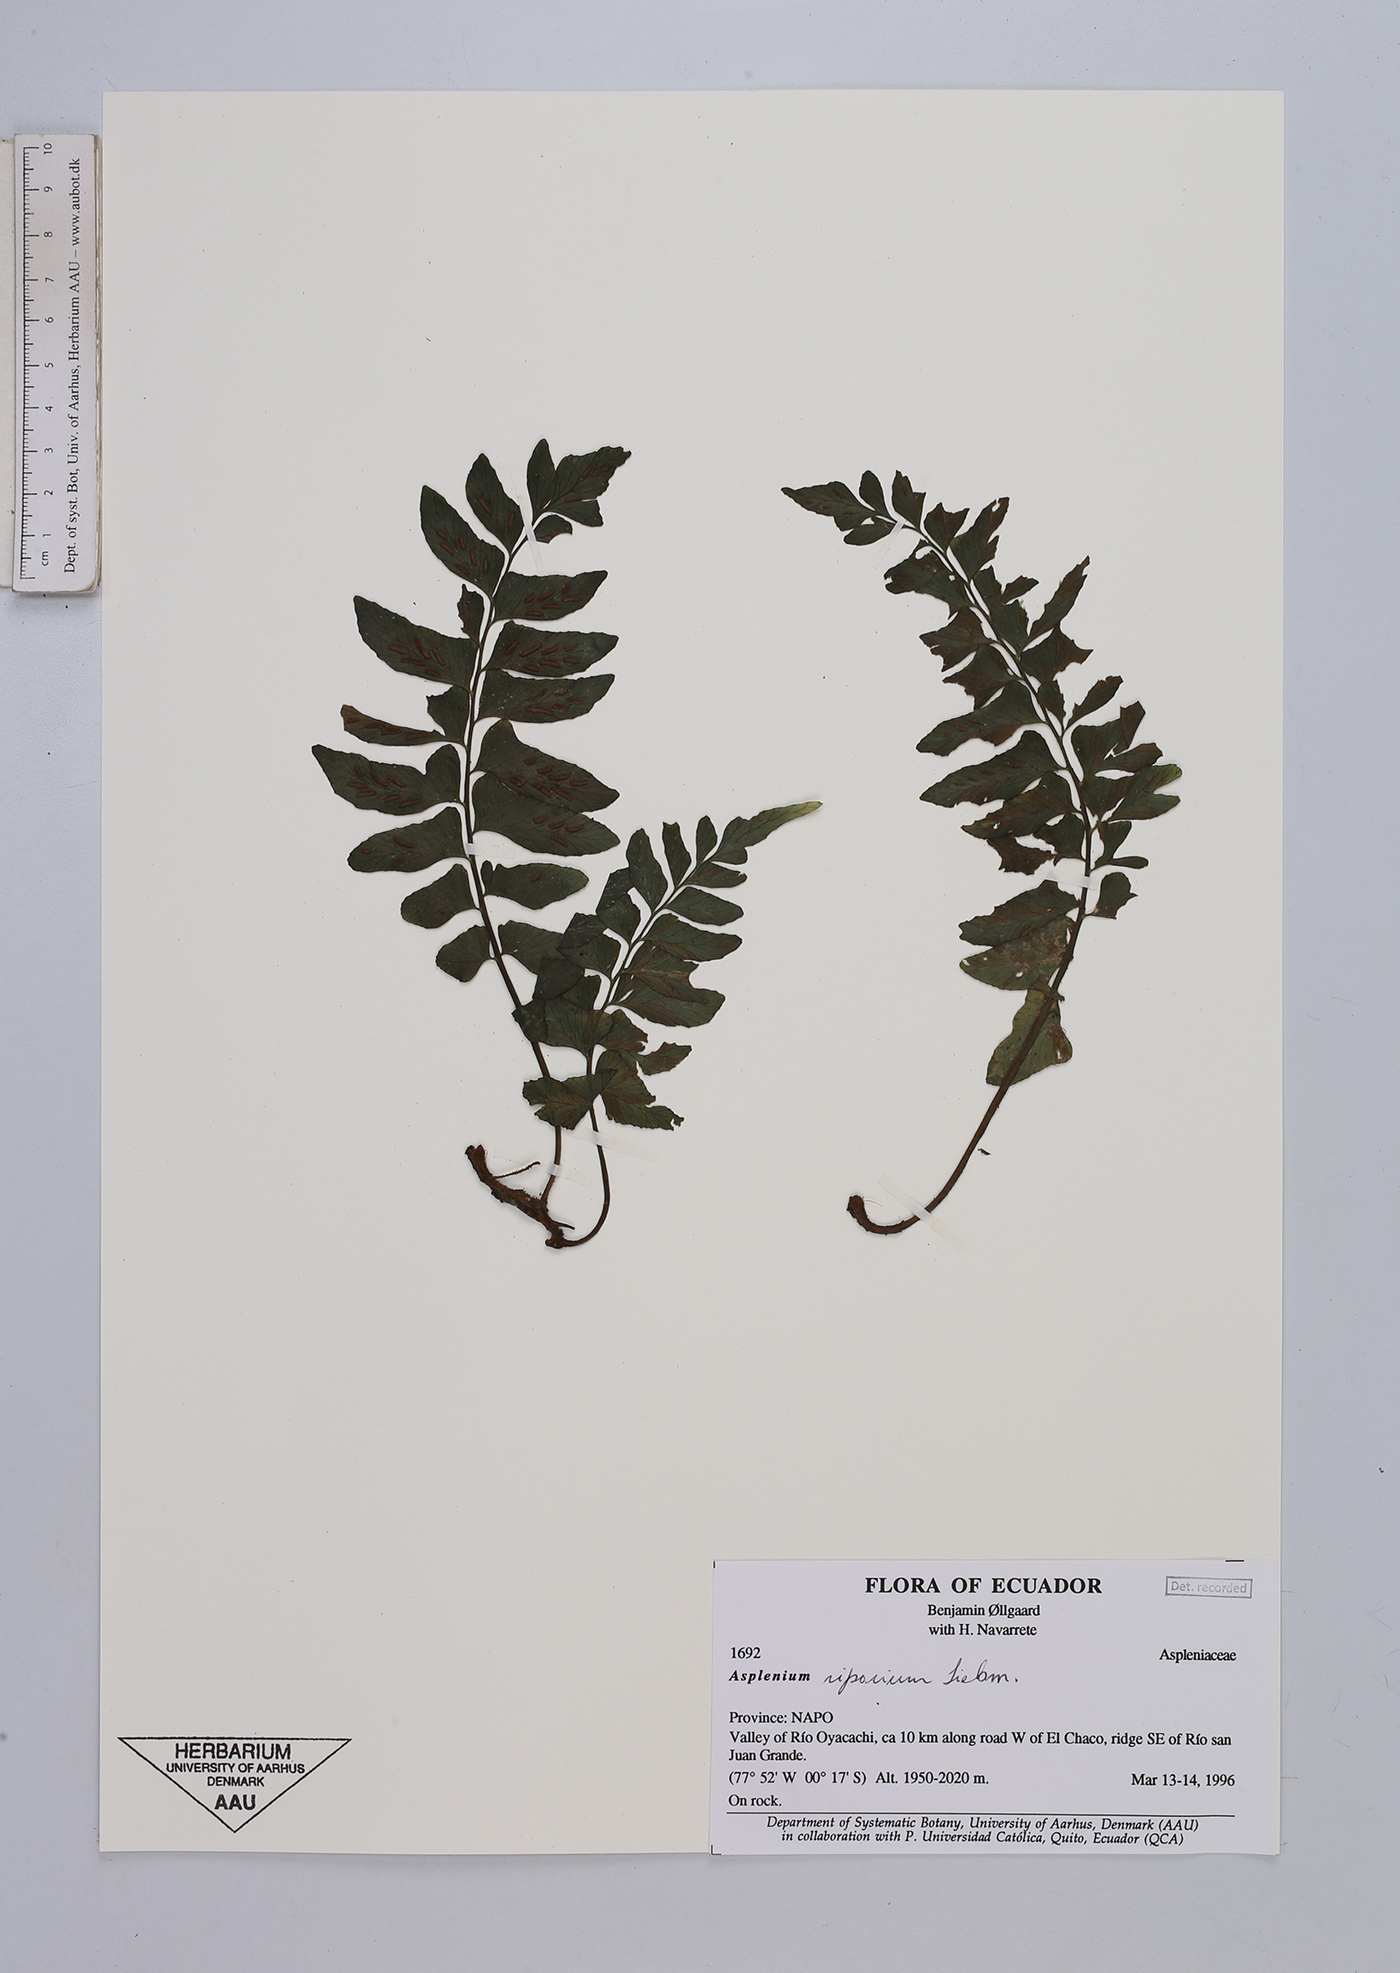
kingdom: Plantae
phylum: Tracheophyta
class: Polypodiopsida
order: Polypodiales
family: Aspleniaceae
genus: Hymenasplenium
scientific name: Hymenasplenium riparium
